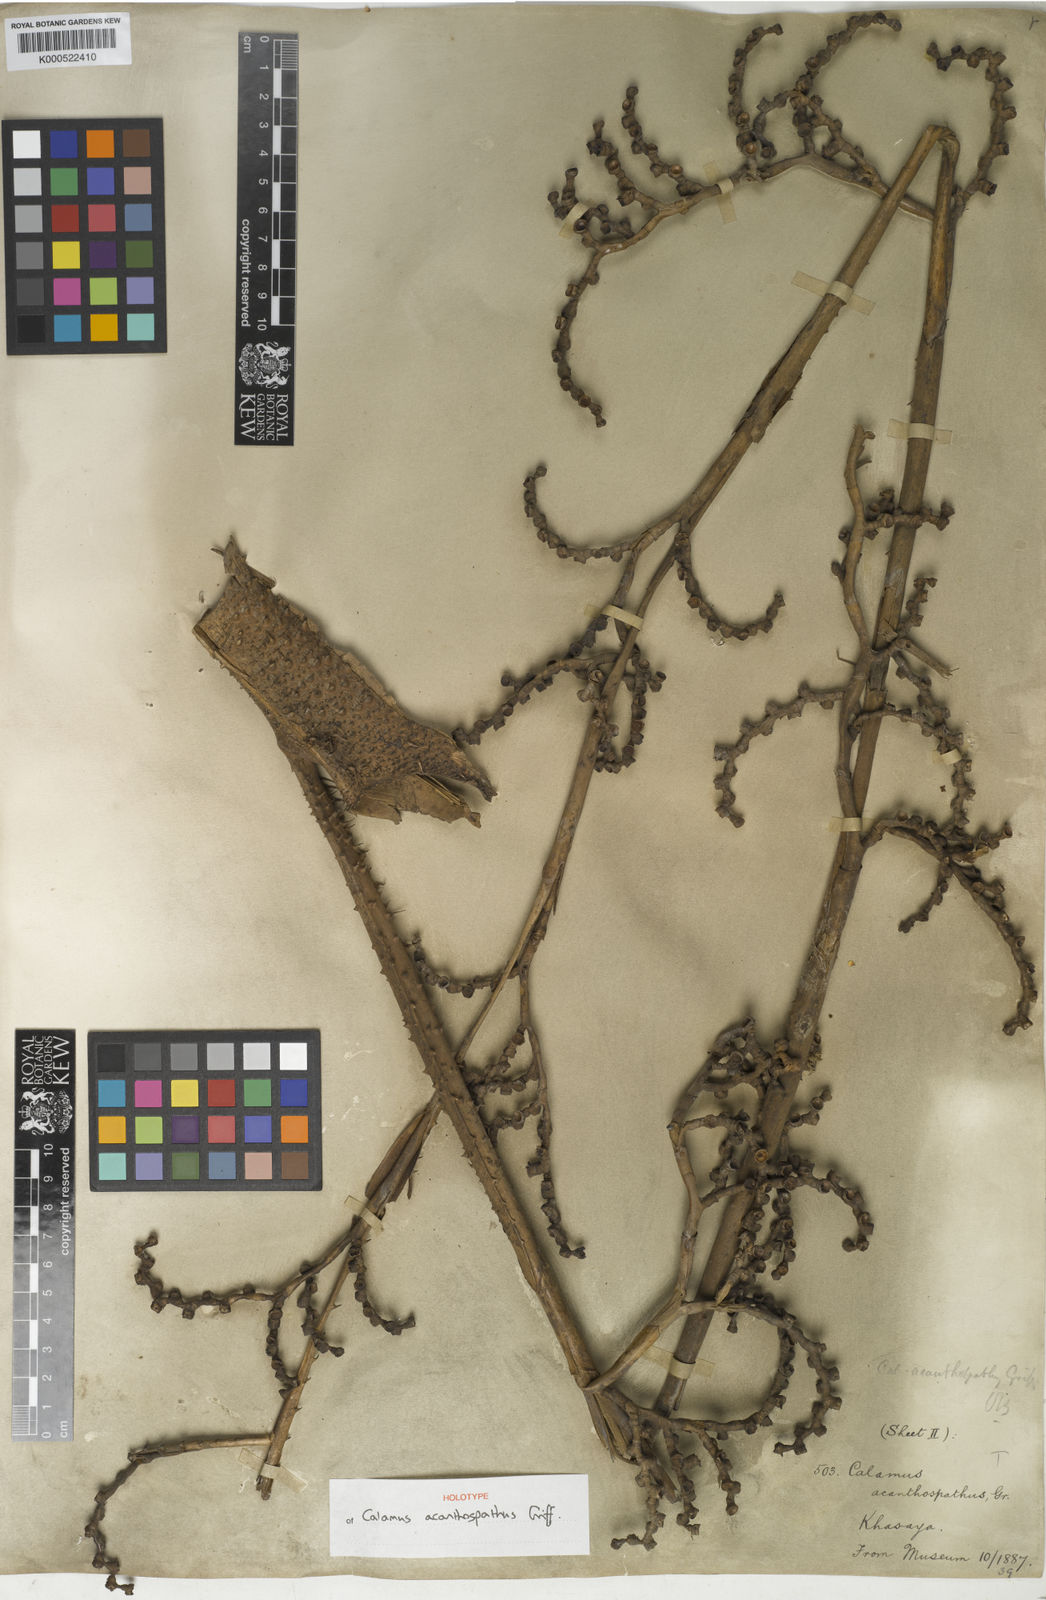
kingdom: Plantae
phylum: Tracheophyta
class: Liliopsida
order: Arecales
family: Arecaceae
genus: Calamus
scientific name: Calamus acanthospathus
